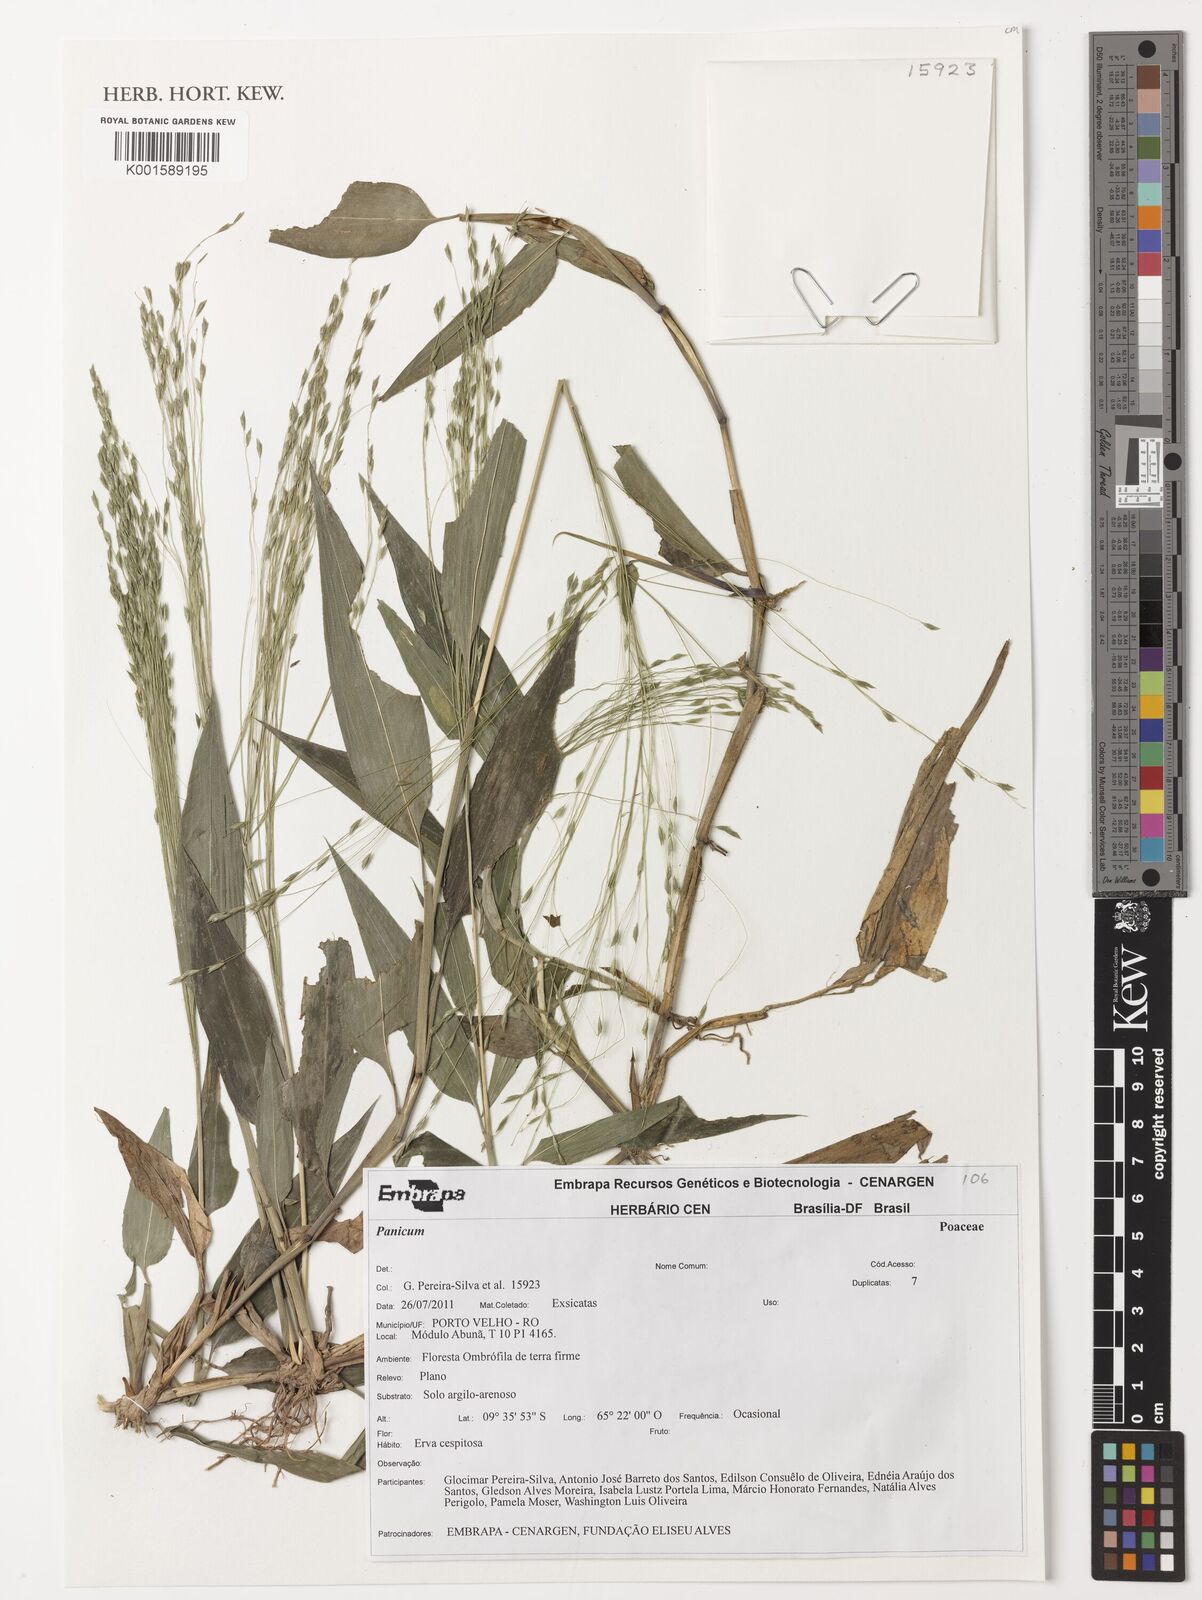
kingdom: Plantae
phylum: Tracheophyta
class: Liliopsida
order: Poales
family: Poaceae
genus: Panicum
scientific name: Panicum
